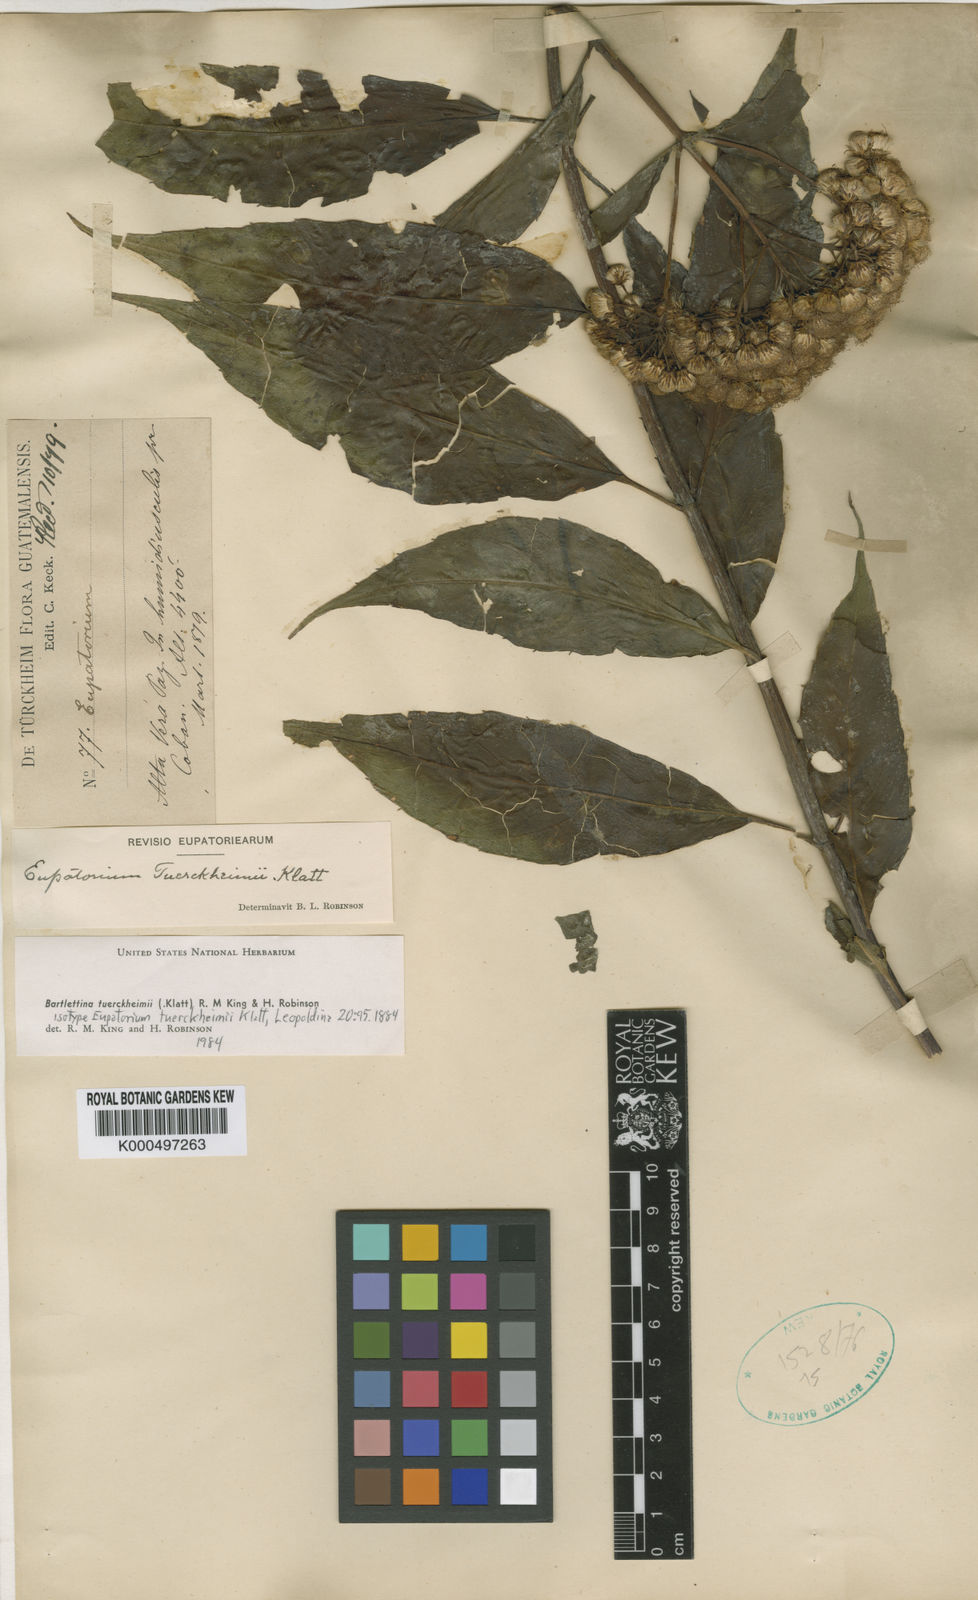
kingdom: Plantae
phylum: Tracheophyta
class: Magnoliopsida
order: Asterales
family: Asteraceae
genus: Bartlettina
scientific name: Bartlettina tuerckheimii
